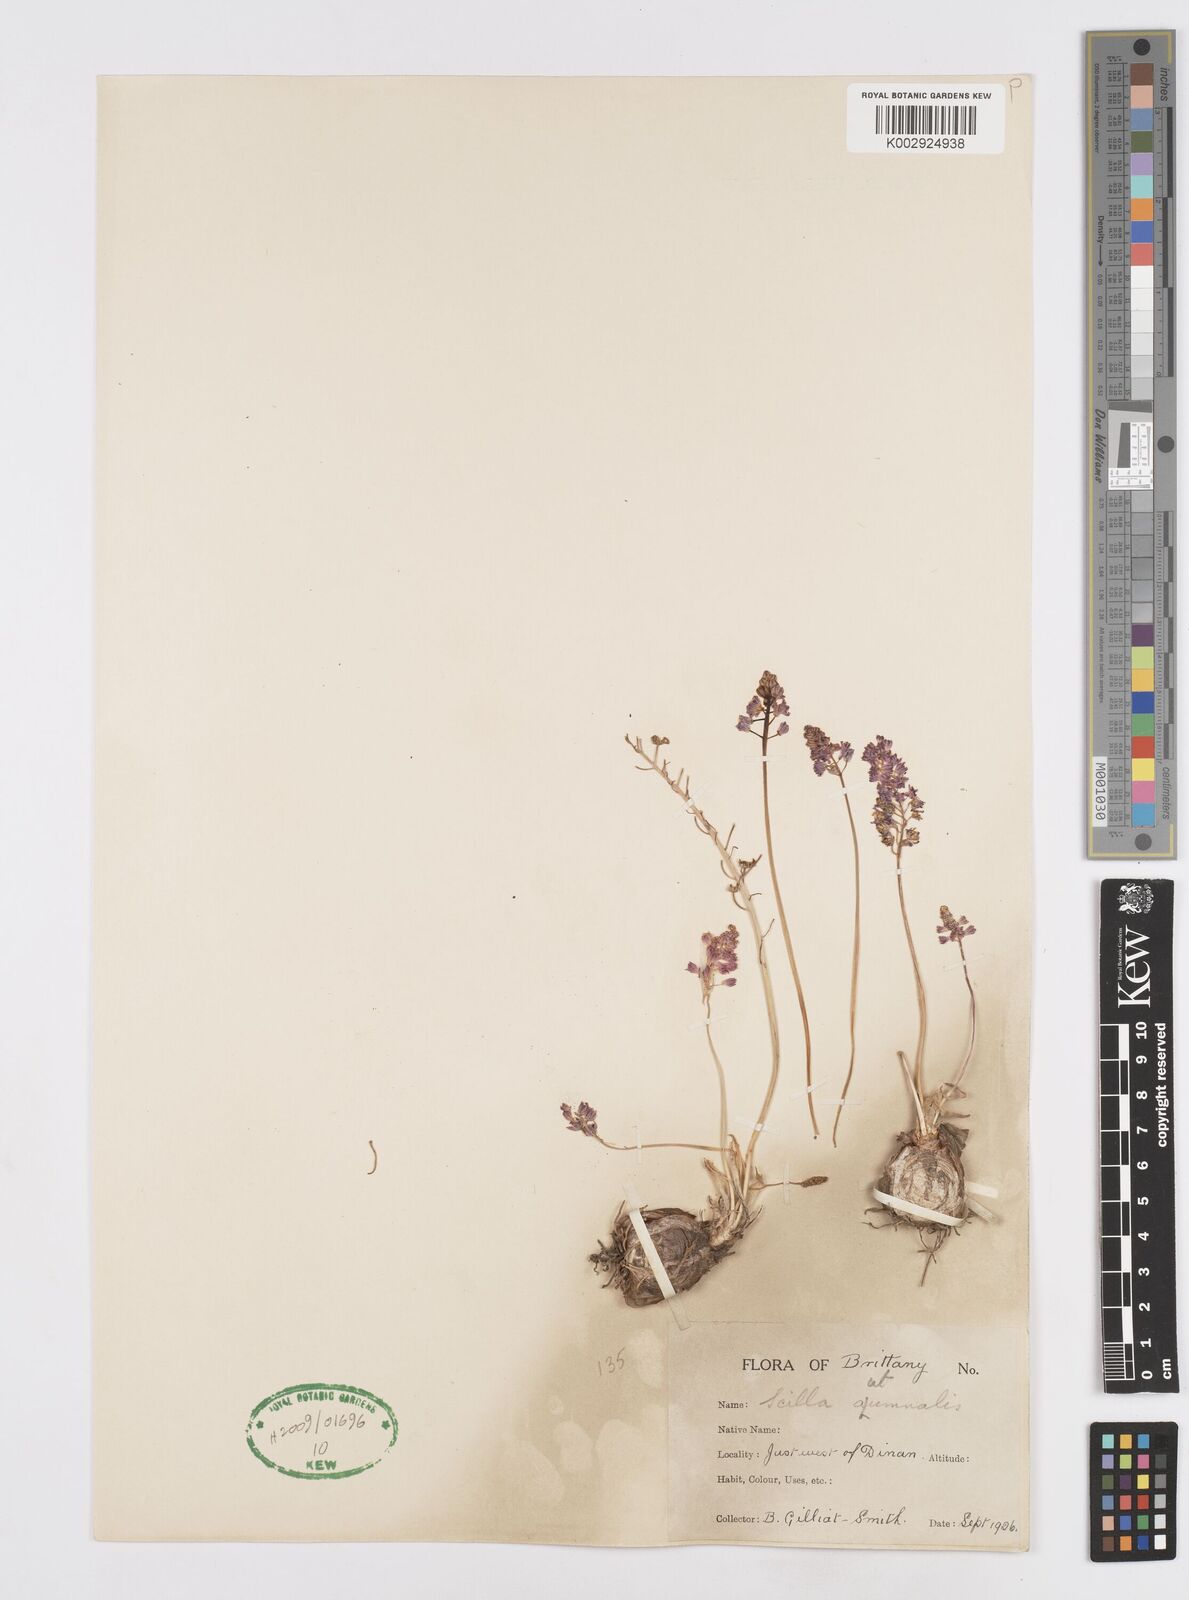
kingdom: Plantae
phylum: Tracheophyta
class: Liliopsida
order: Asparagales
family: Asparagaceae
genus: Prospero
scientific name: Prospero autumnale
